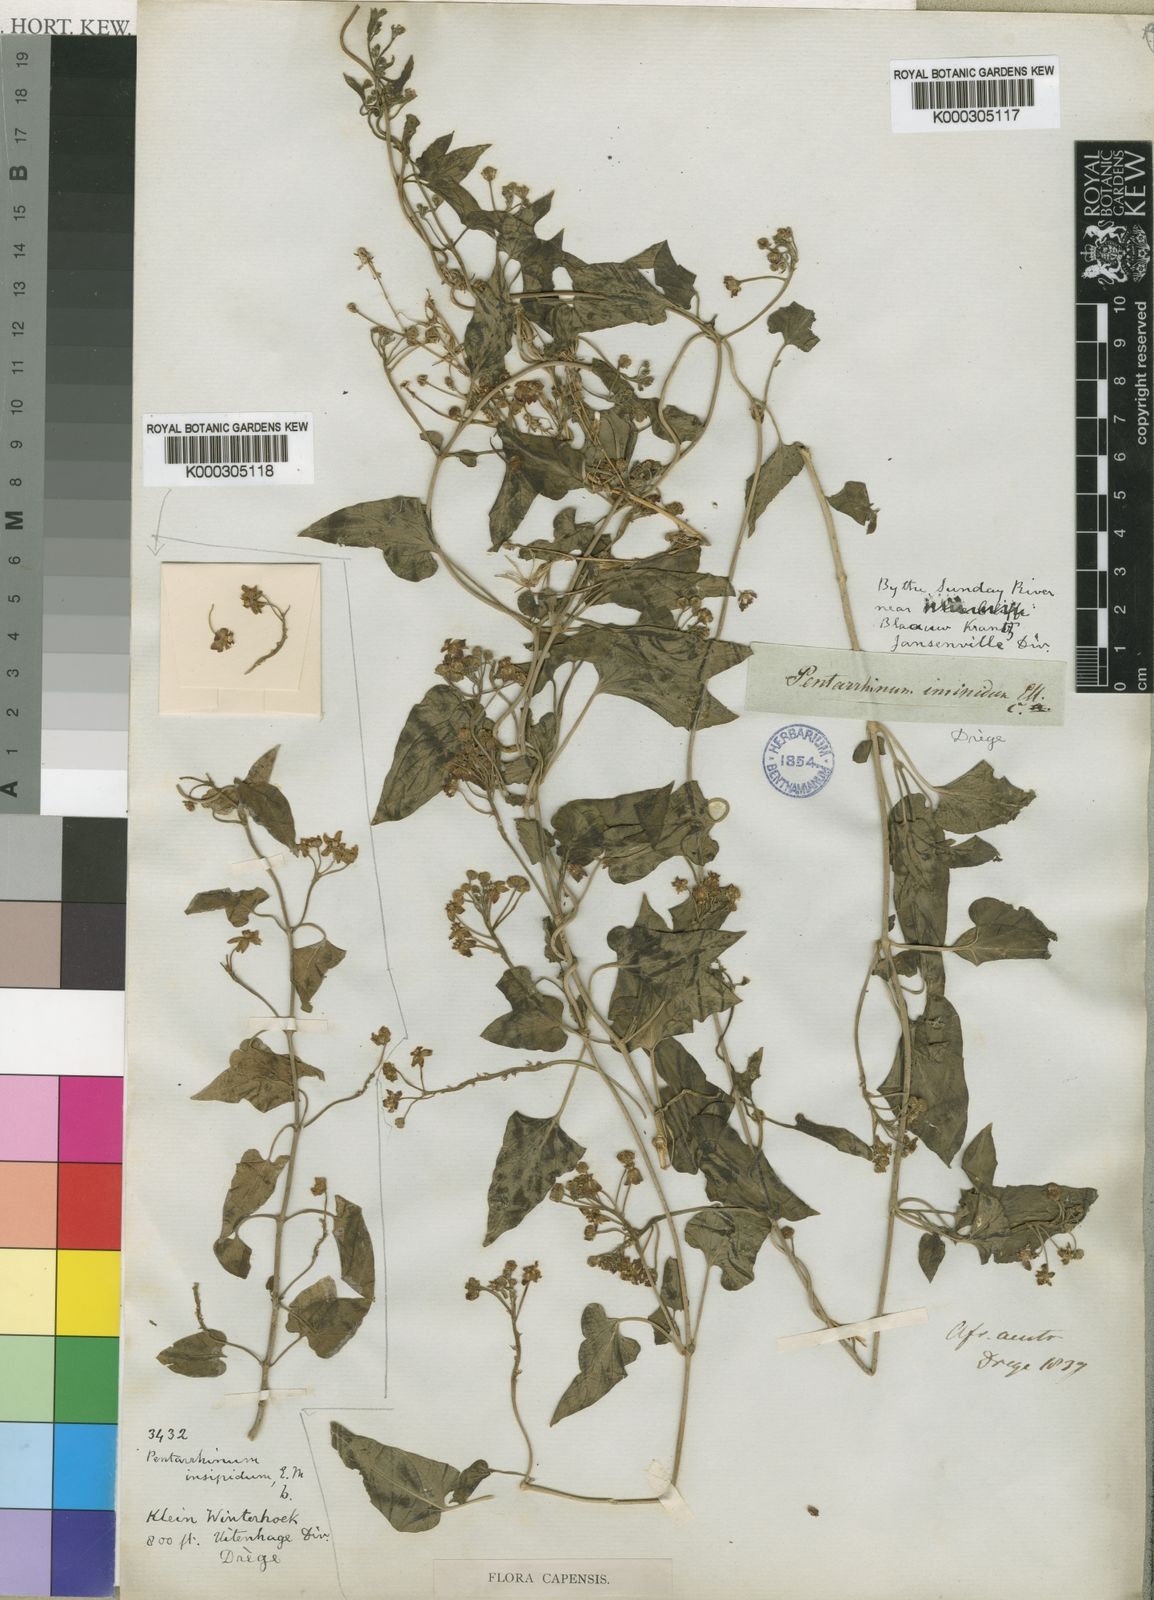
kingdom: Plantae
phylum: Tracheophyta
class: Magnoliopsida
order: Gentianales
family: Apocynaceae
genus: Cynanchum
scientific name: Cynanchum insipidum
